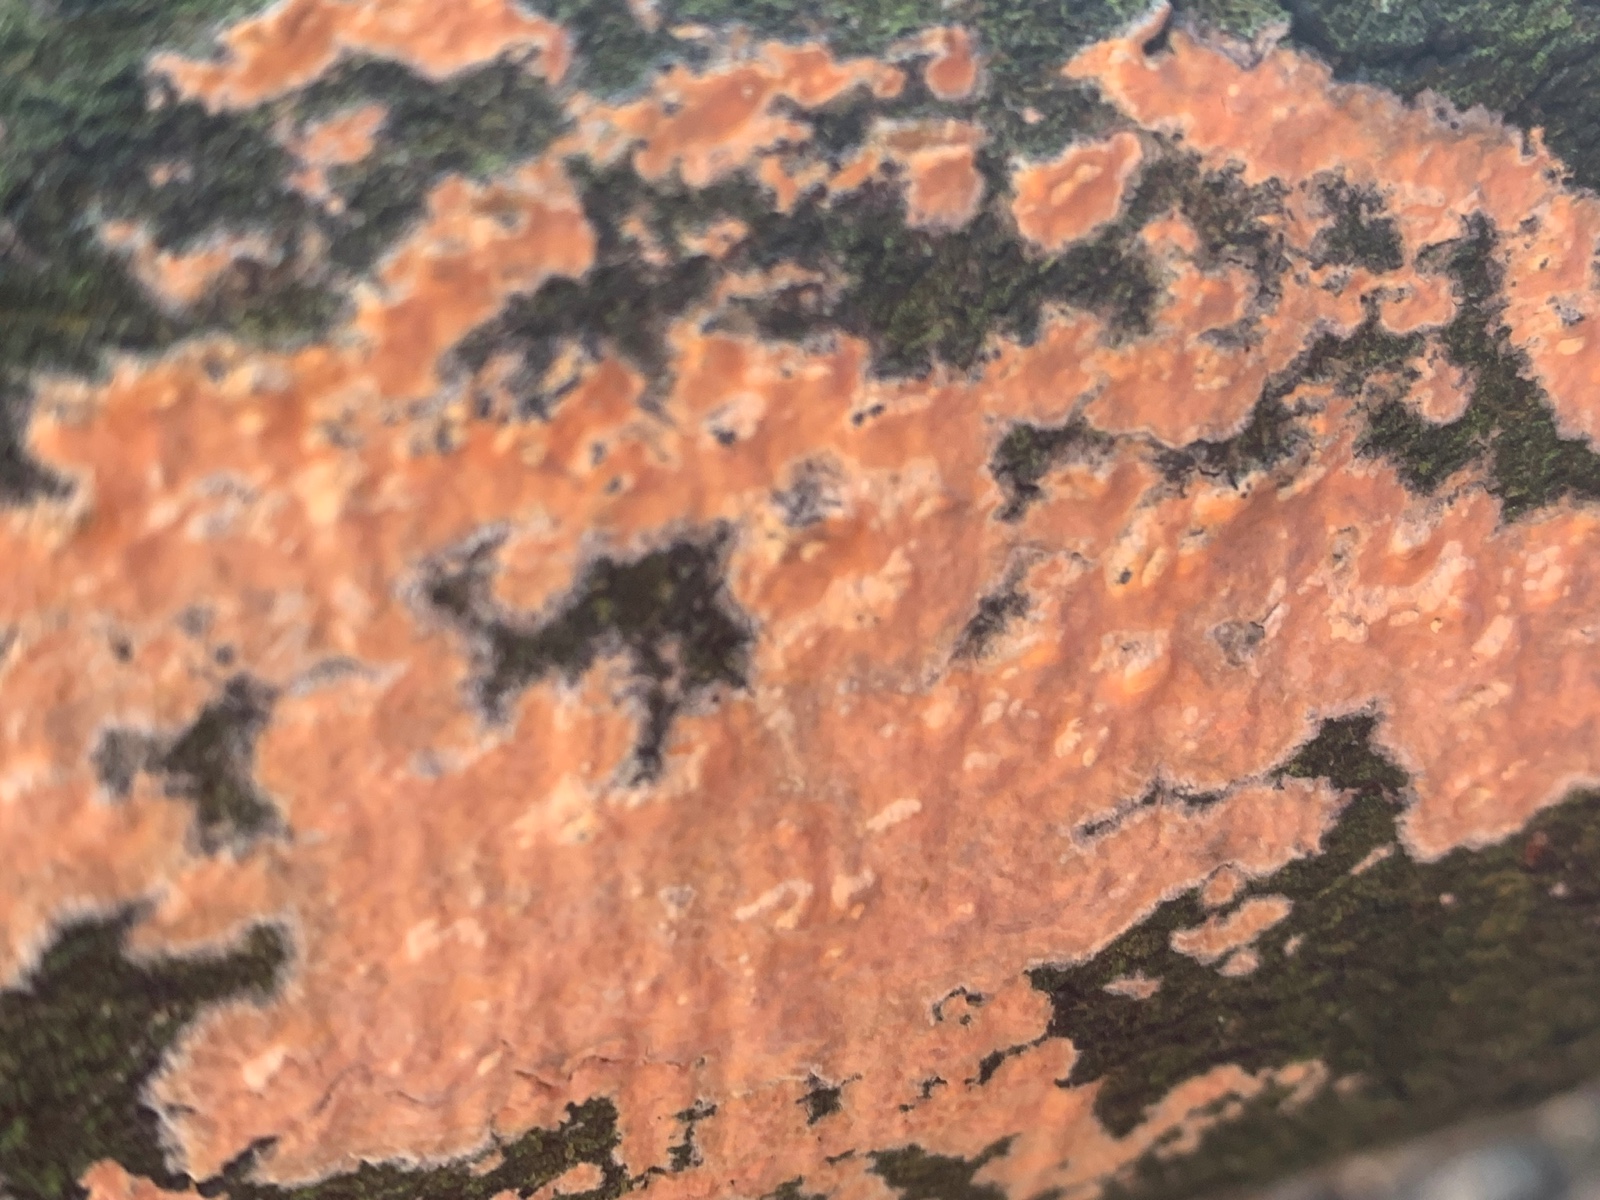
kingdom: Fungi
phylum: Basidiomycota
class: Agaricomycetes
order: Russulales
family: Peniophoraceae
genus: Peniophora
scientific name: Peniophora incarnata
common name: laksefarvet voksskind
